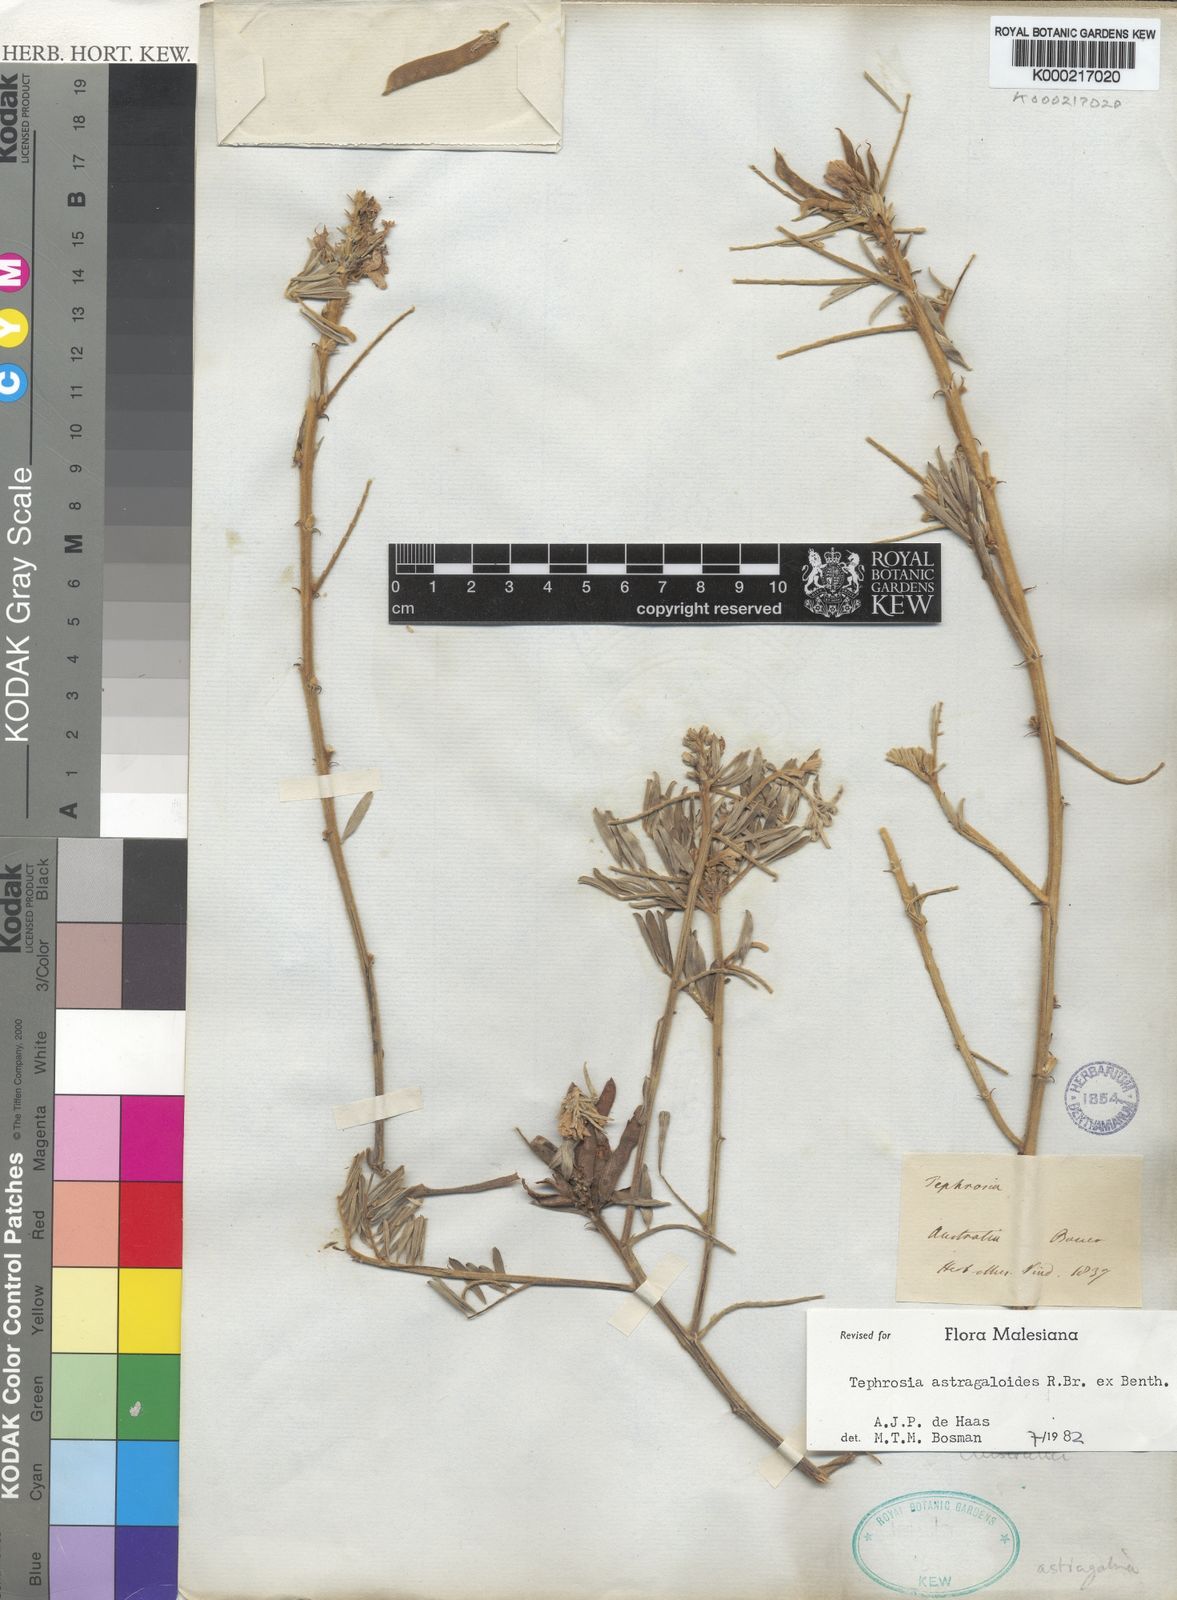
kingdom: Plantae
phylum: Tracheophyta
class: Magnoliopsida
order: Fabales
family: Fabaceae
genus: Tephrosia
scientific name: Tephrosia astragaloides
